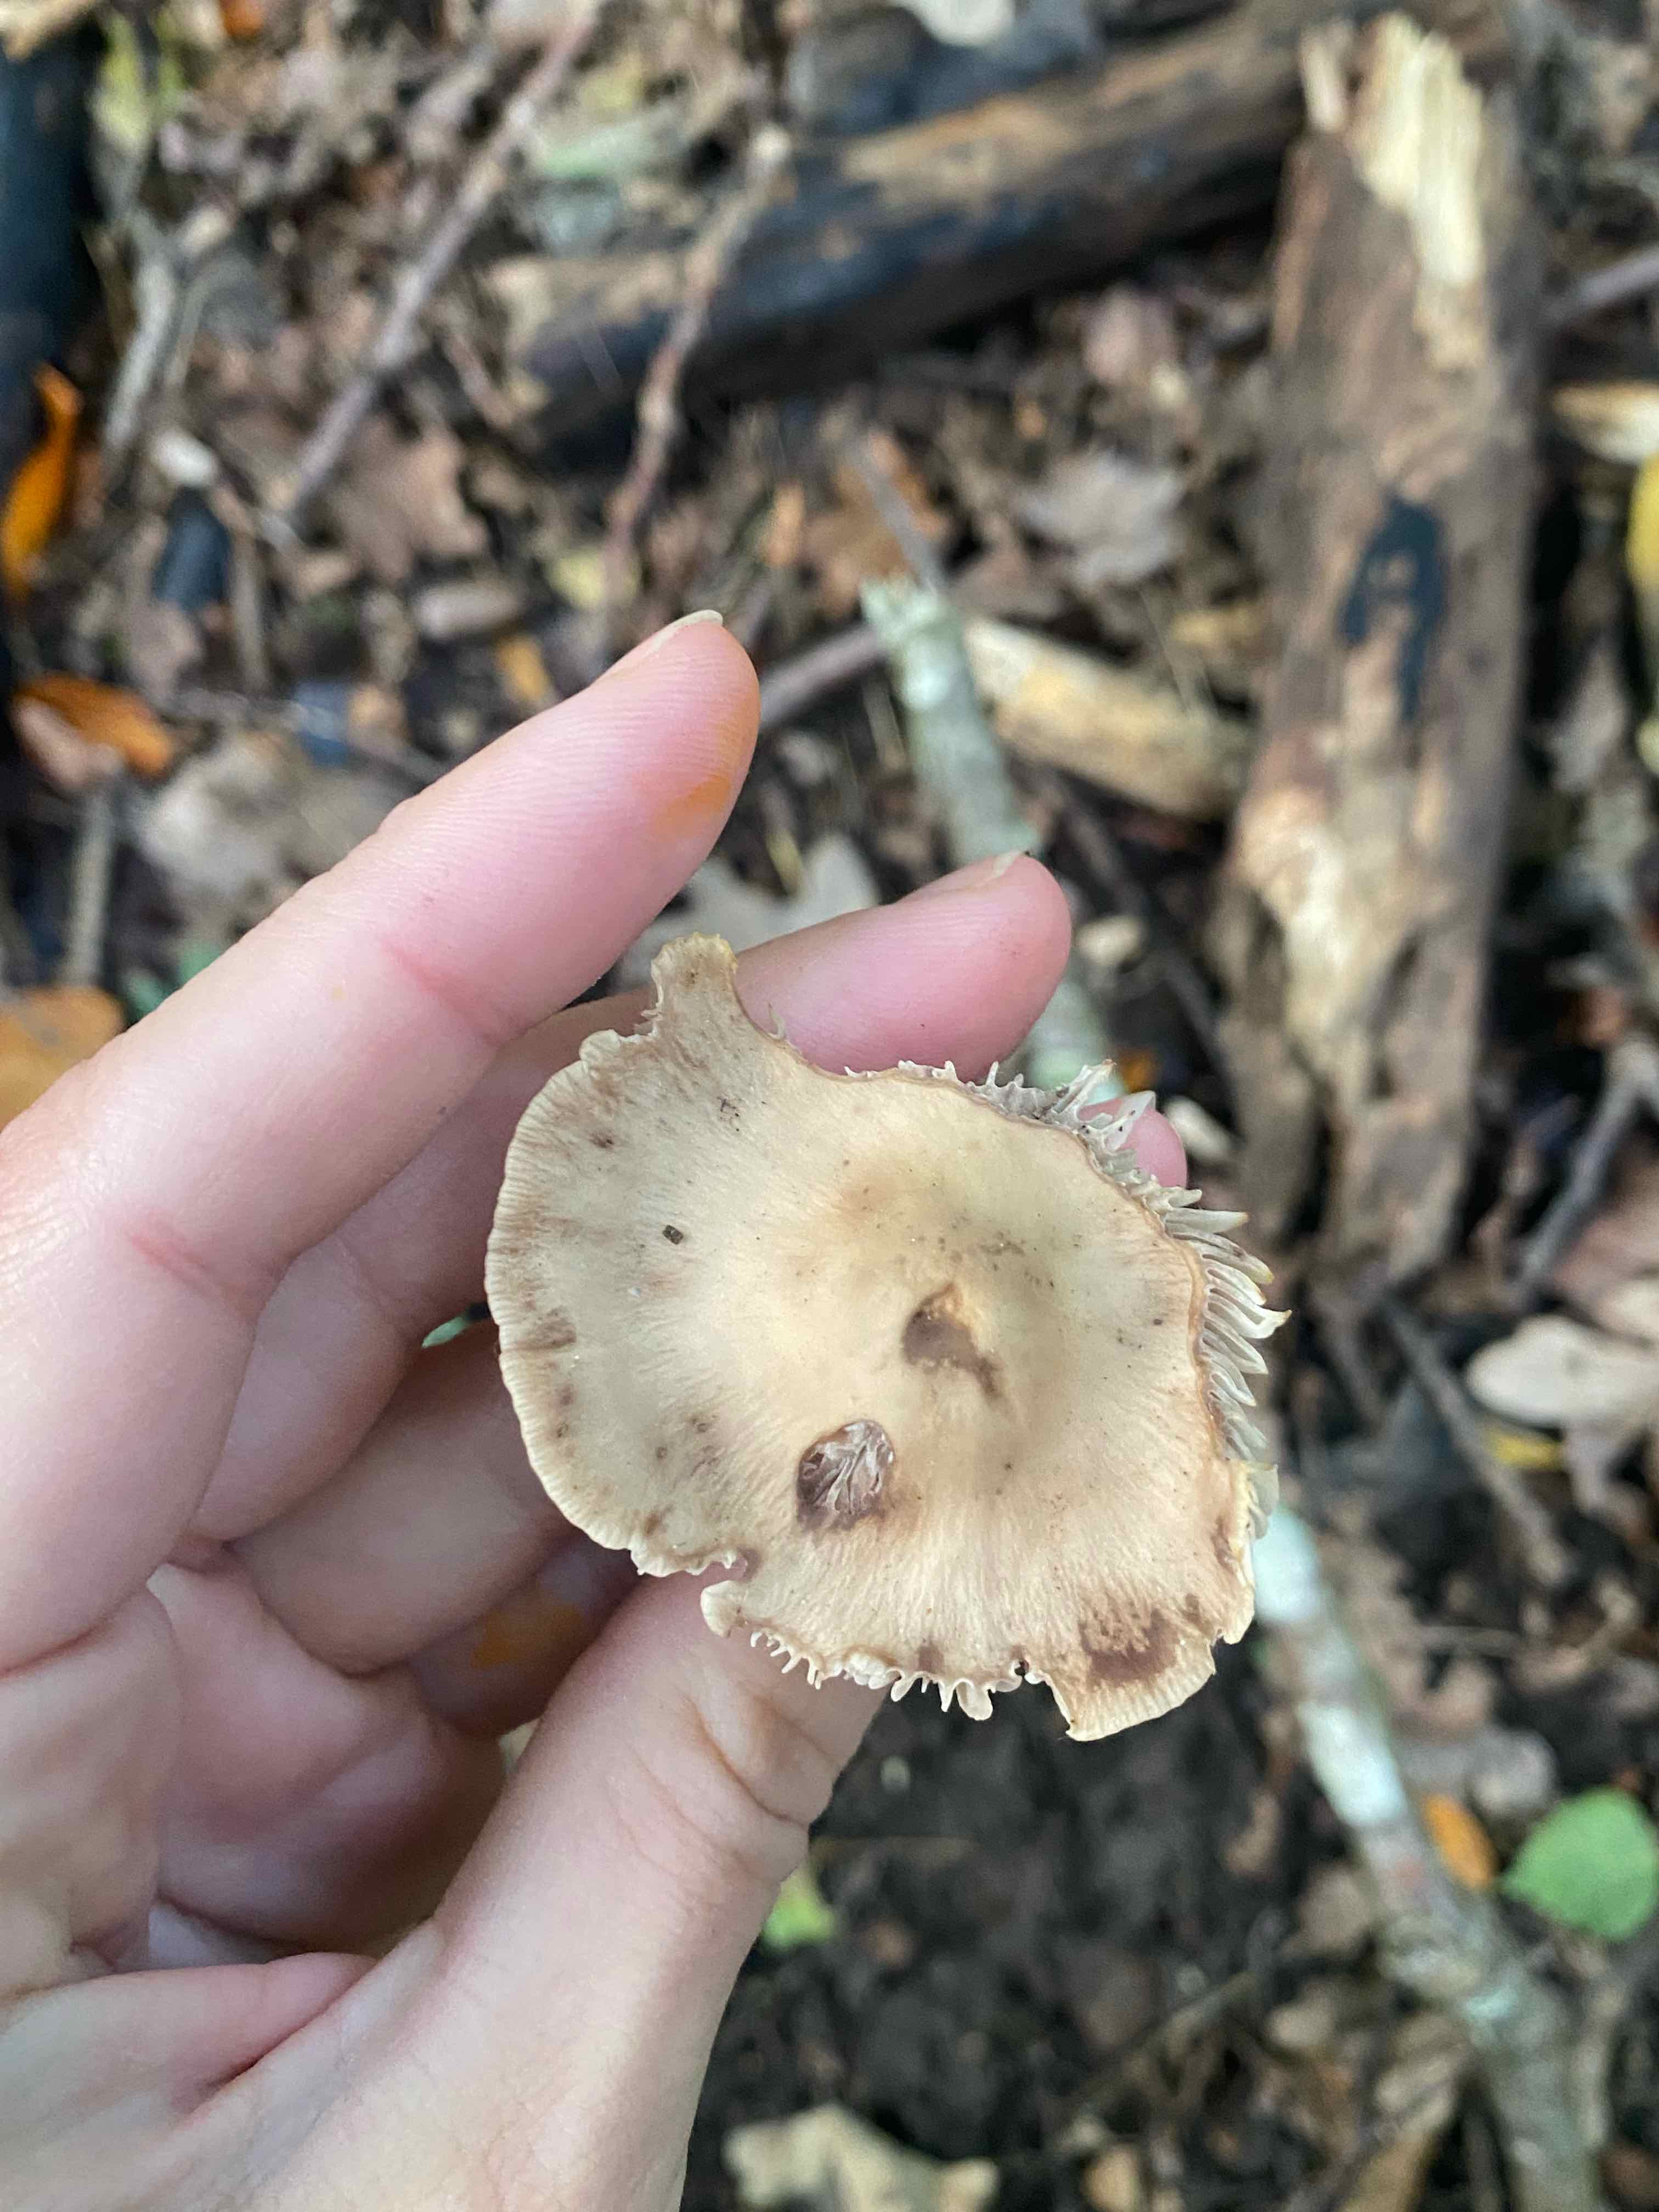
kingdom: Fungi
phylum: Basidiomycota
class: Agaricomycetes
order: Agaricales
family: Omphalotaceae
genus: Mycetinis
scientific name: Mycetinis alliaceus
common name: stor løghat
